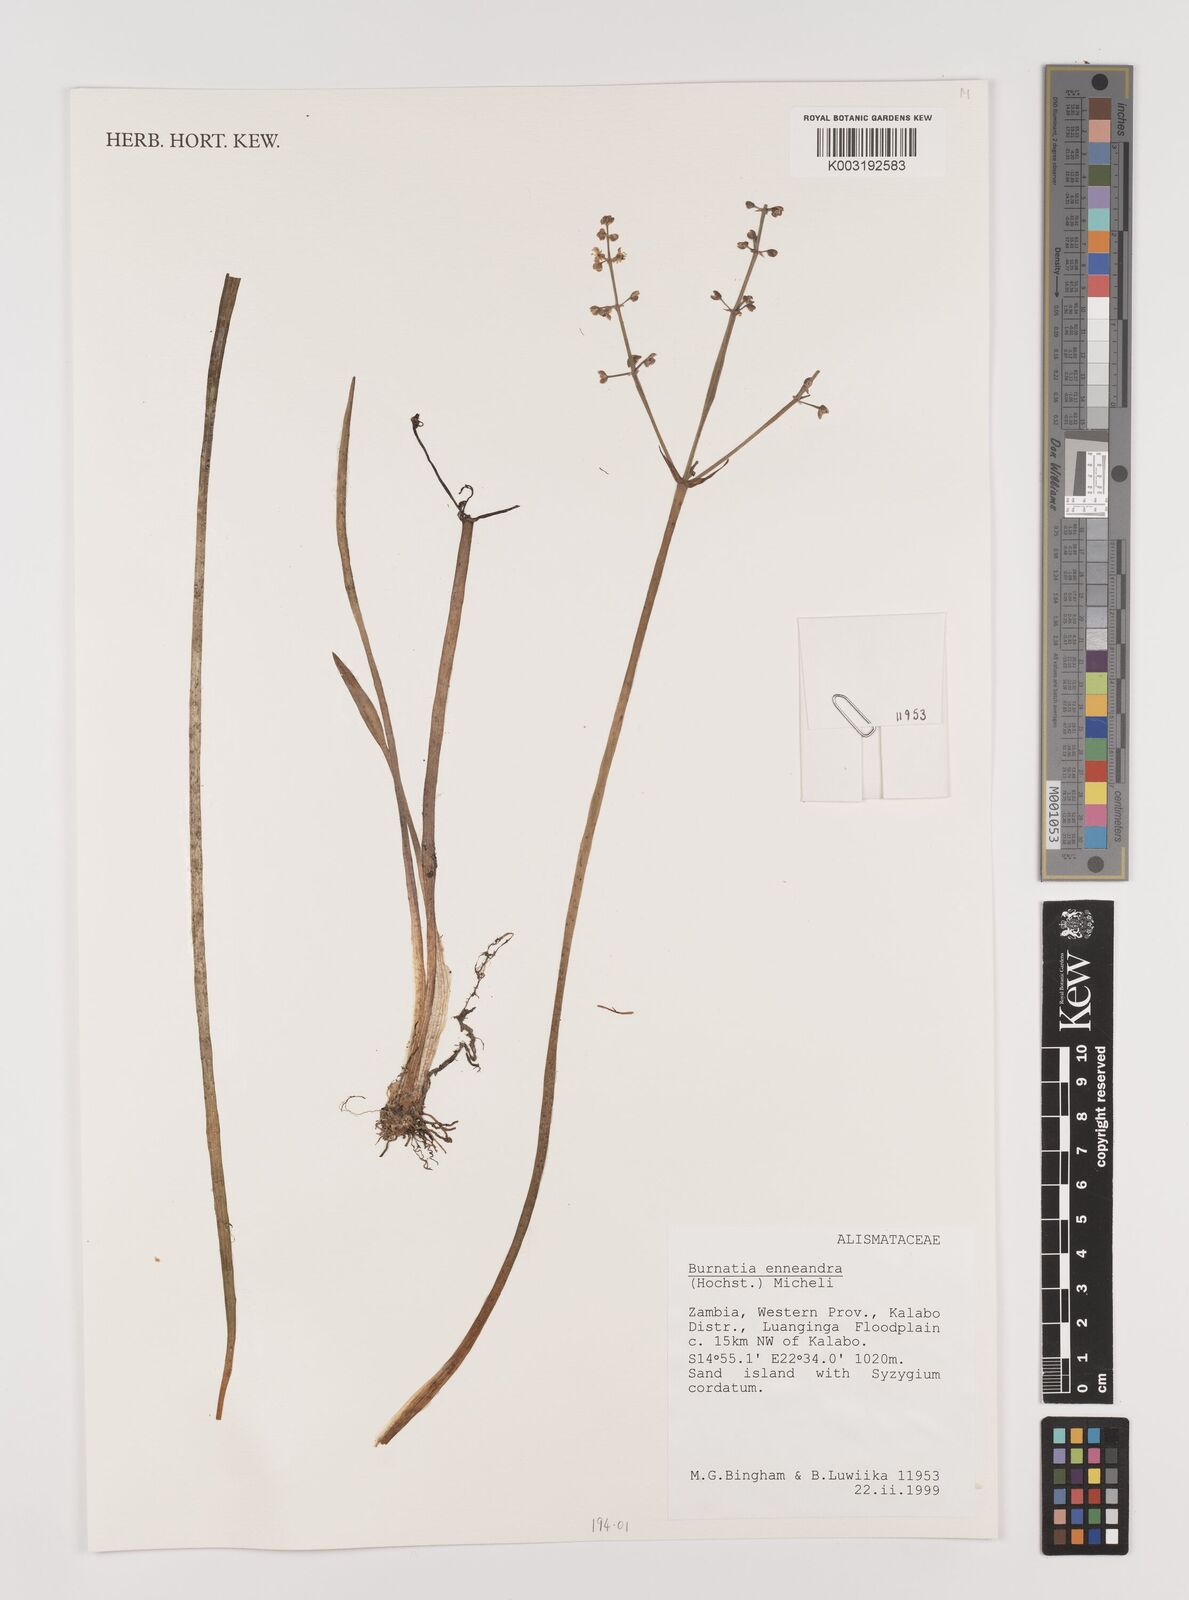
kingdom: Plantae
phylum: Tracheophyta
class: Liliopsida
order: Alismatales
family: Alismataceae
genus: Burnatia
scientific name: Burnatia enneandra
